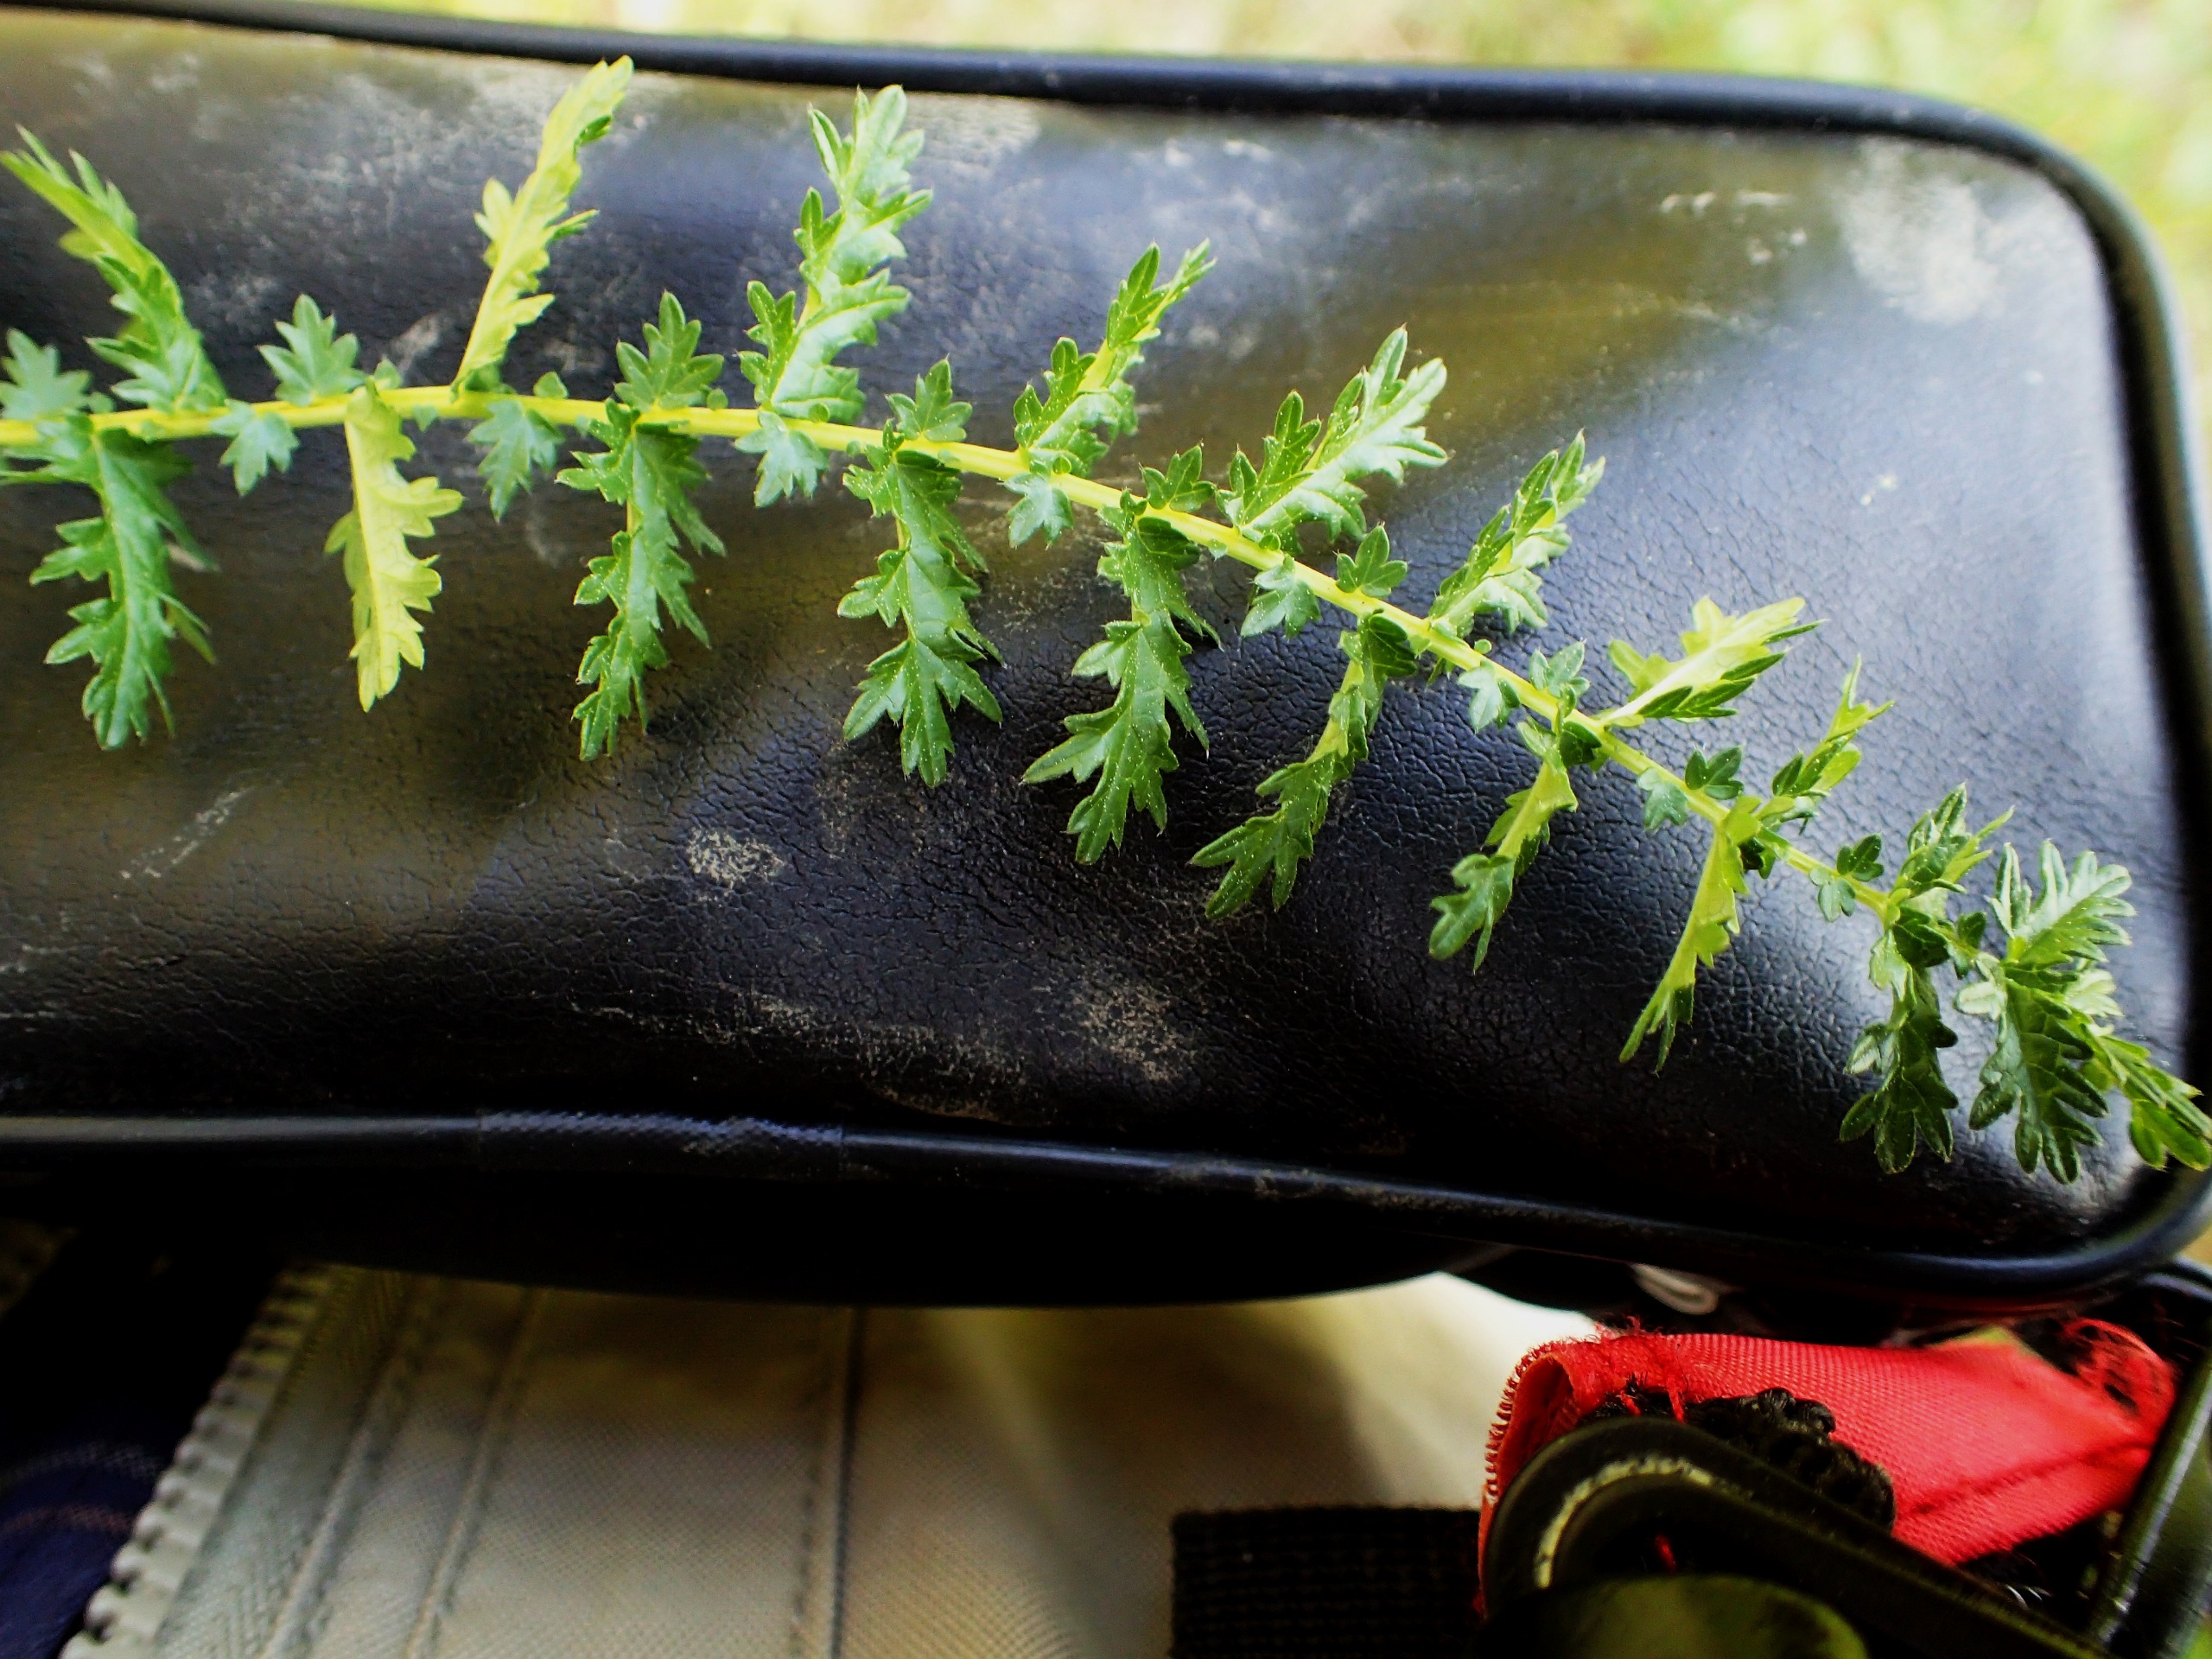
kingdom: Plantae
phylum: Tracheophyta
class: Magnoliopsida
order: Rosales
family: Rosaceae
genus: Filipendula
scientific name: Filipendula vulgaris
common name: Knoldet mjødurt
